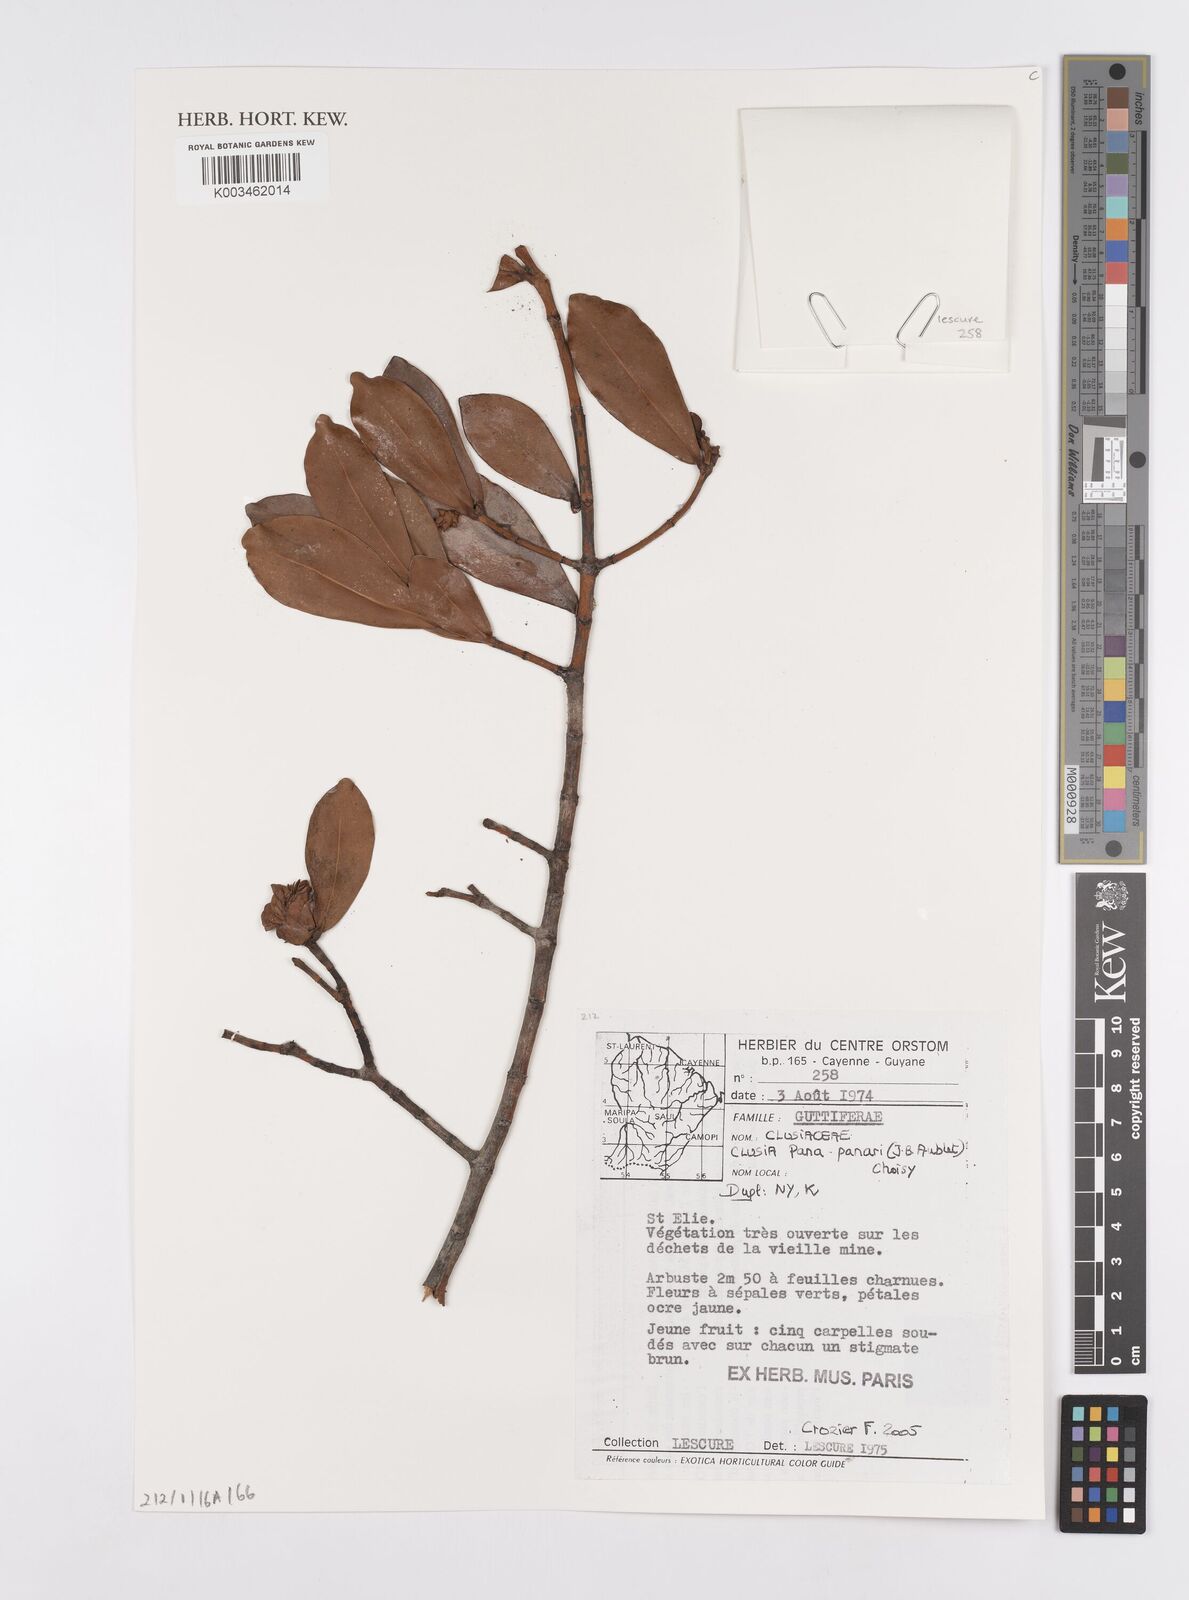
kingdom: Plantae
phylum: Tracheophyta
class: Magnoliopsida
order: Malpighiales
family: Clusiaceae
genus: Clusia
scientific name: Clusia panapanari
